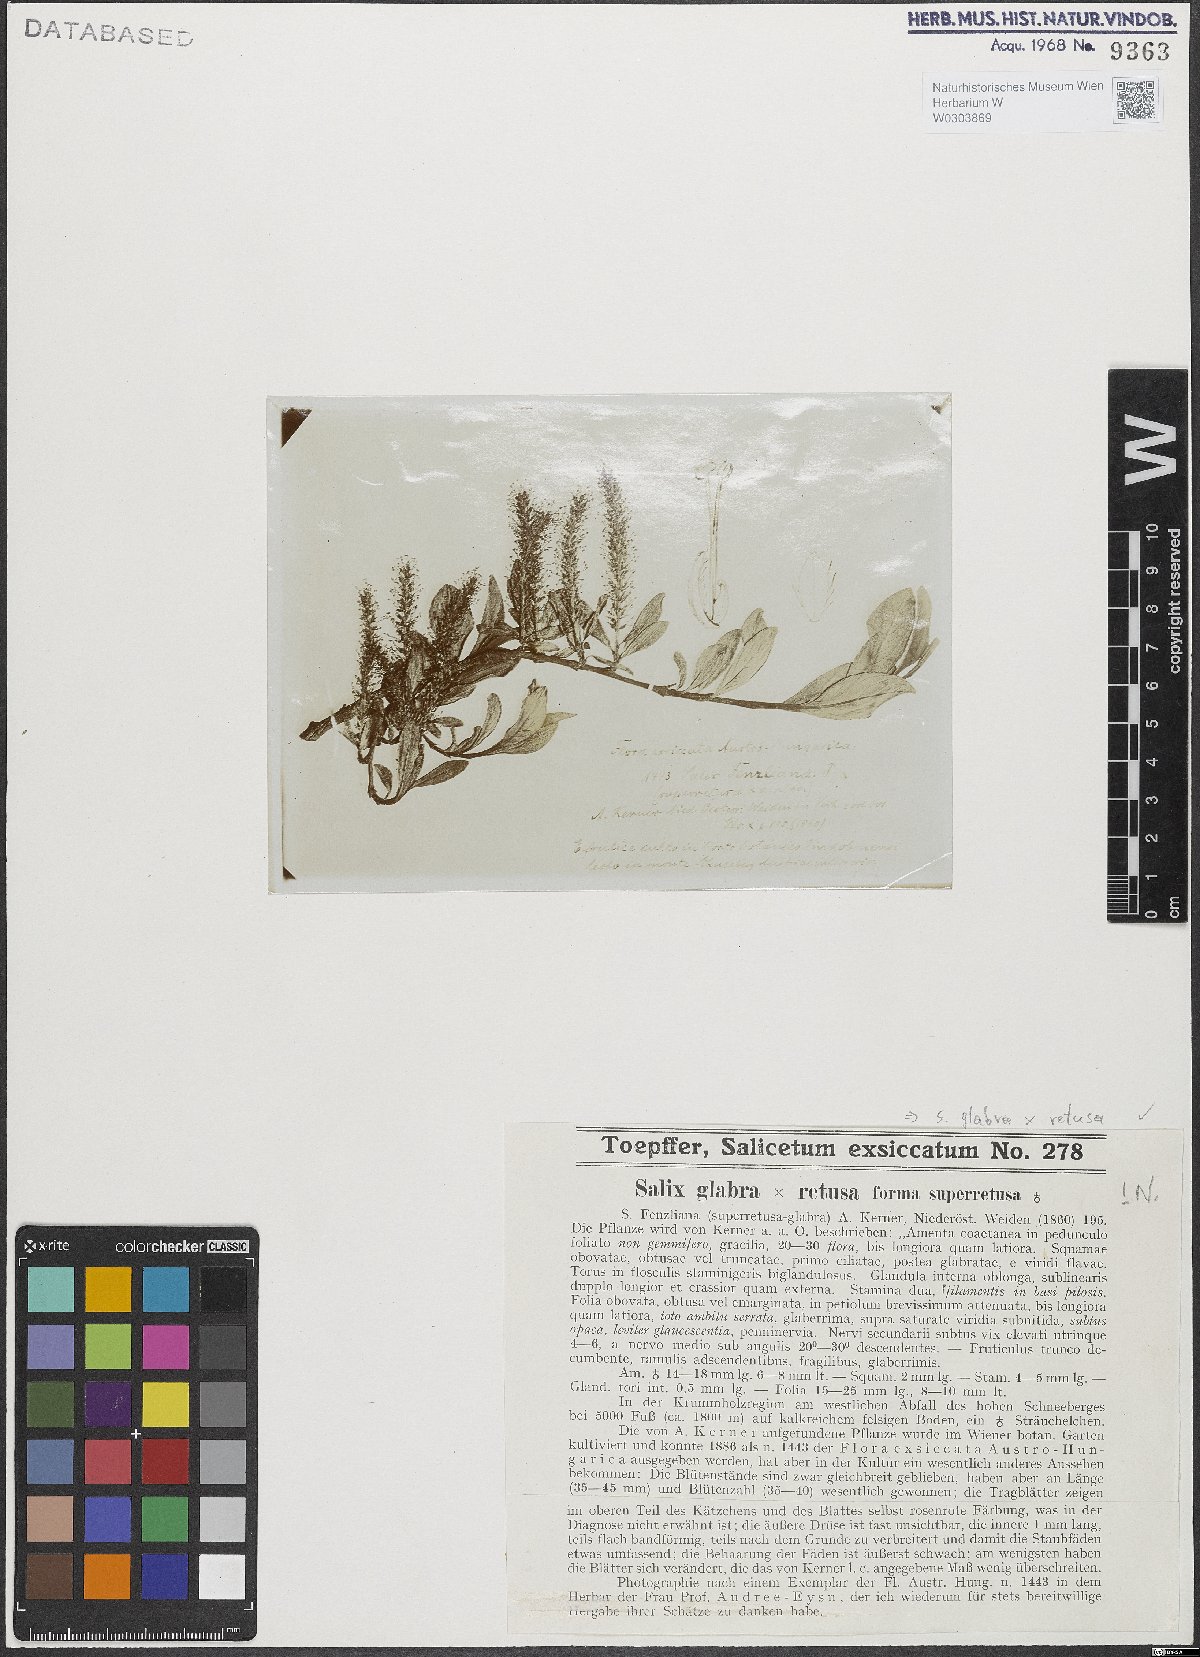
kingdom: Plantae
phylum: Tracheophyta
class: Magnoliopsida
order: Malpighiales
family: Salicaceae
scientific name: Salicaceae
